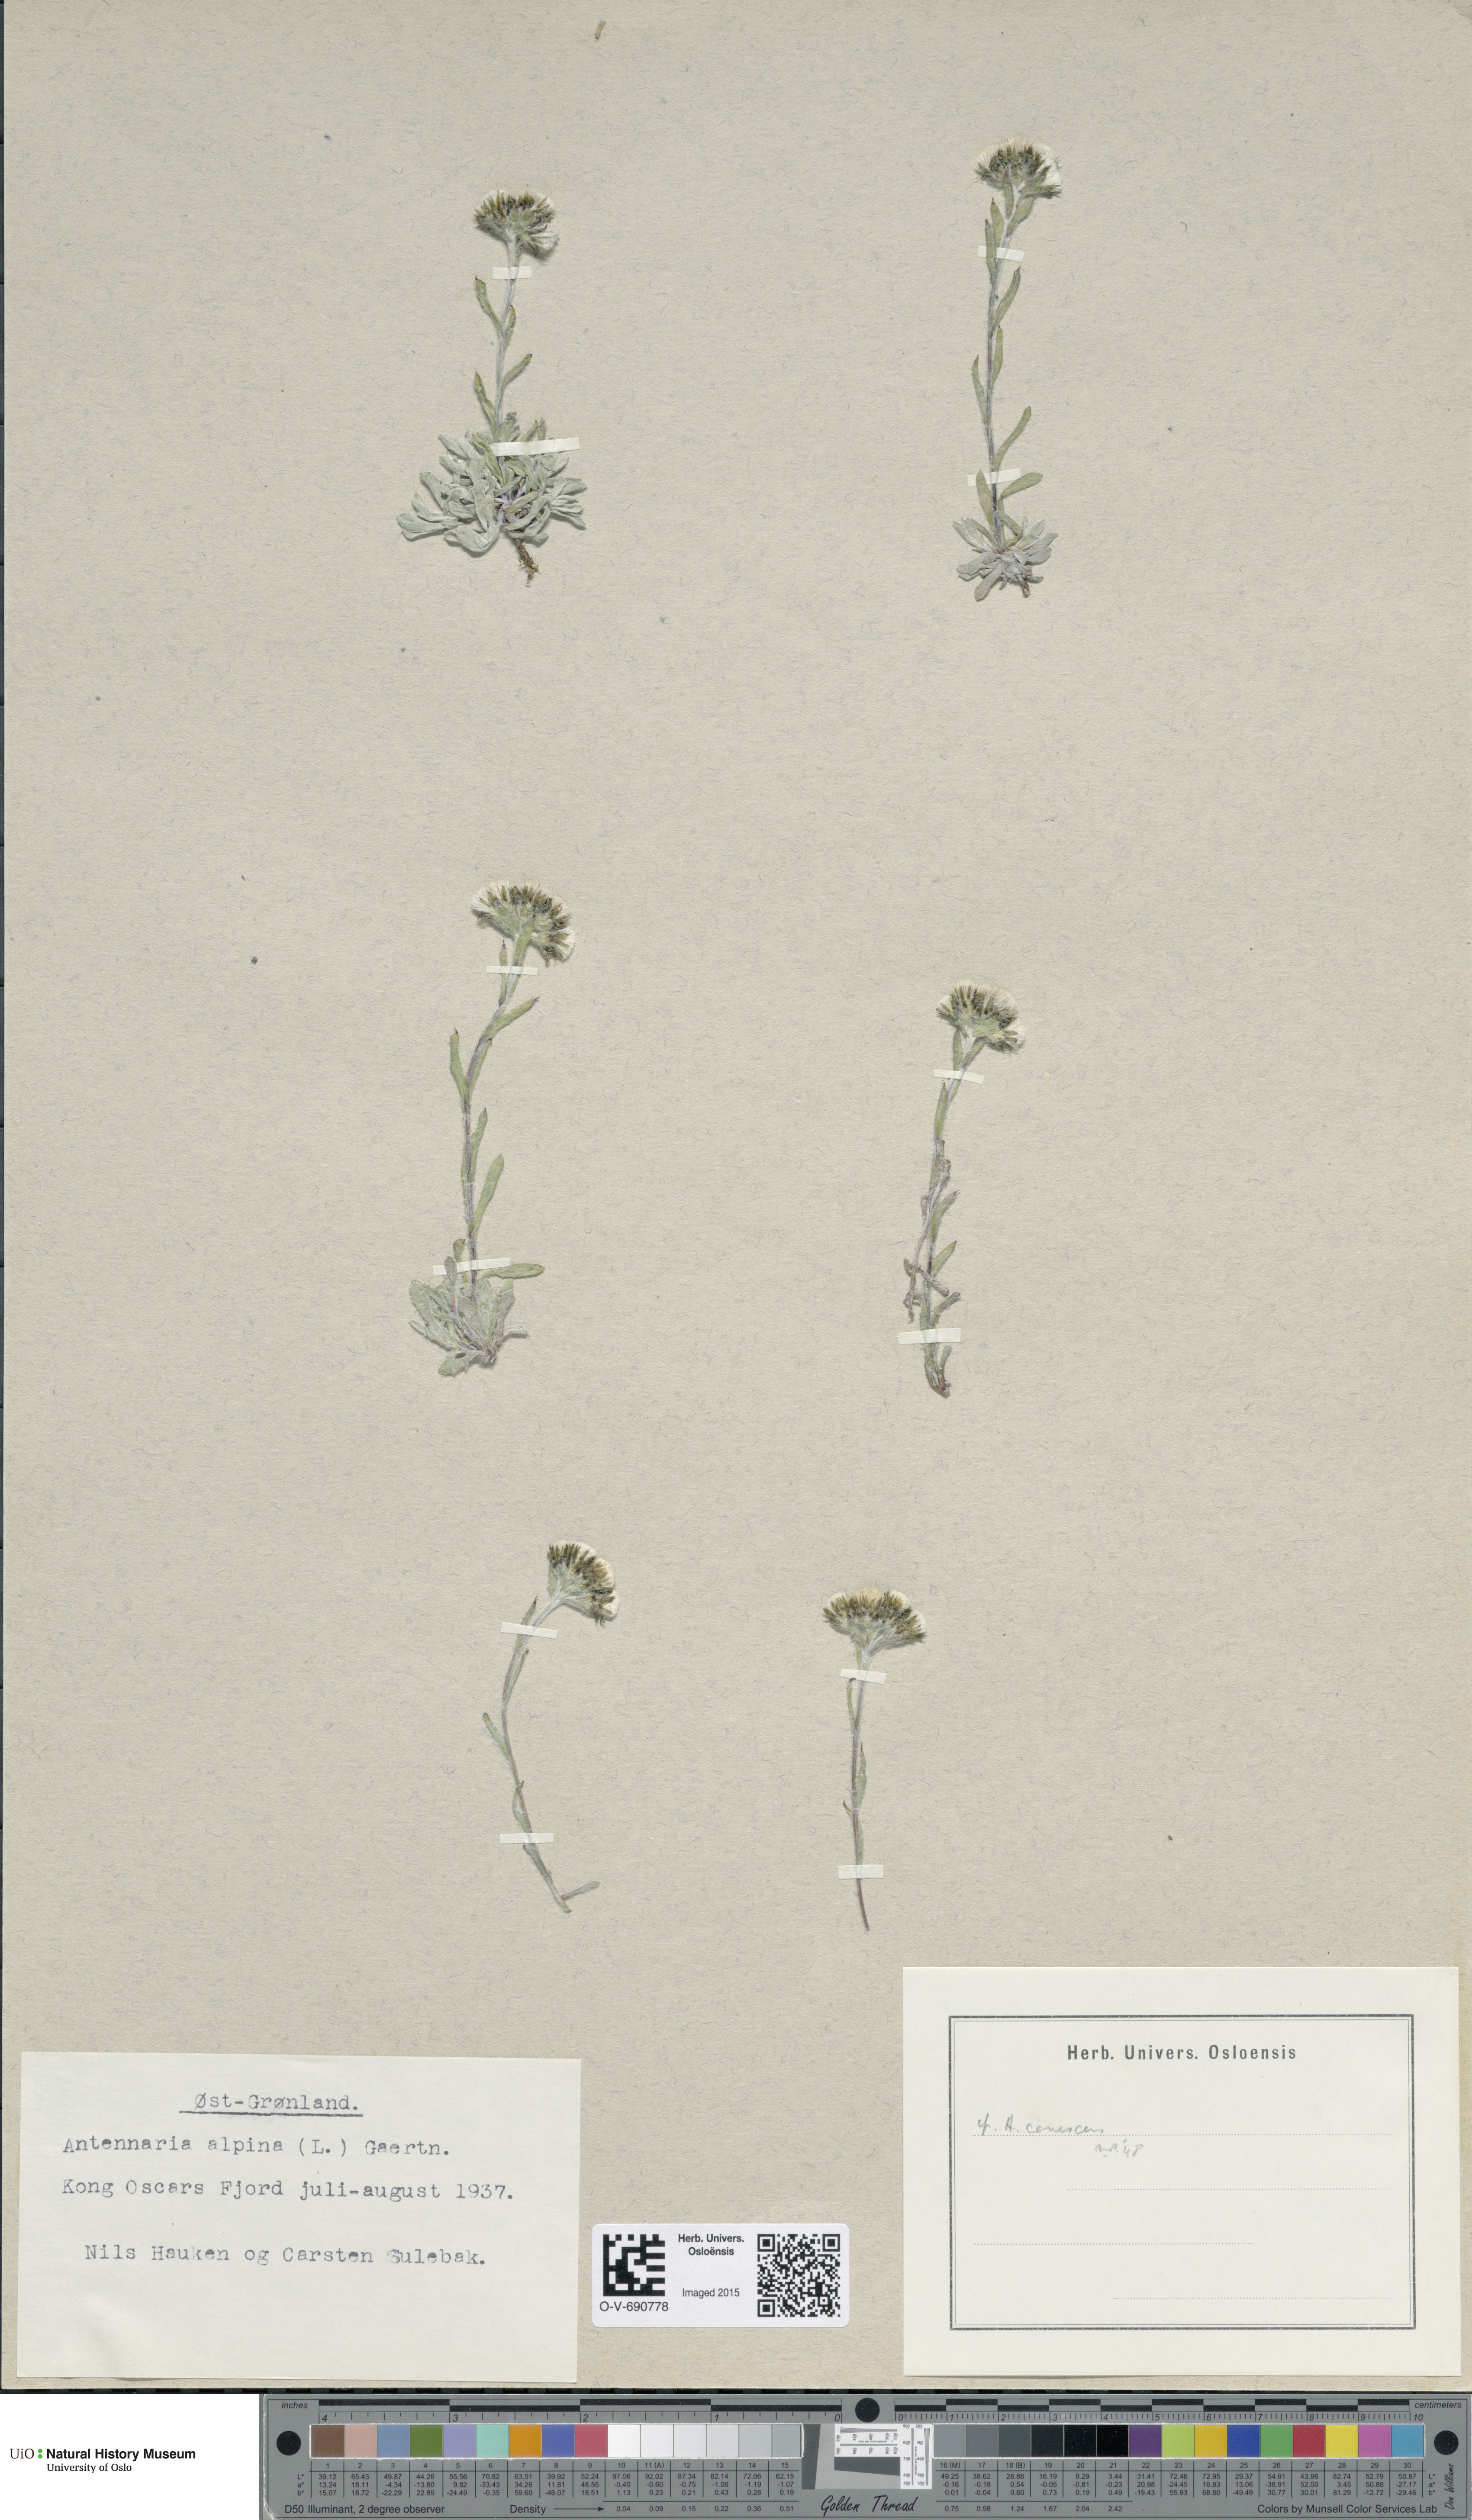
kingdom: Plantae
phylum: Tracheophyta
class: Magnoliopsida
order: Asterales
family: Asteraceae
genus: Antennaria
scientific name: Antennaria alpina
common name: Alpine pussytoes
